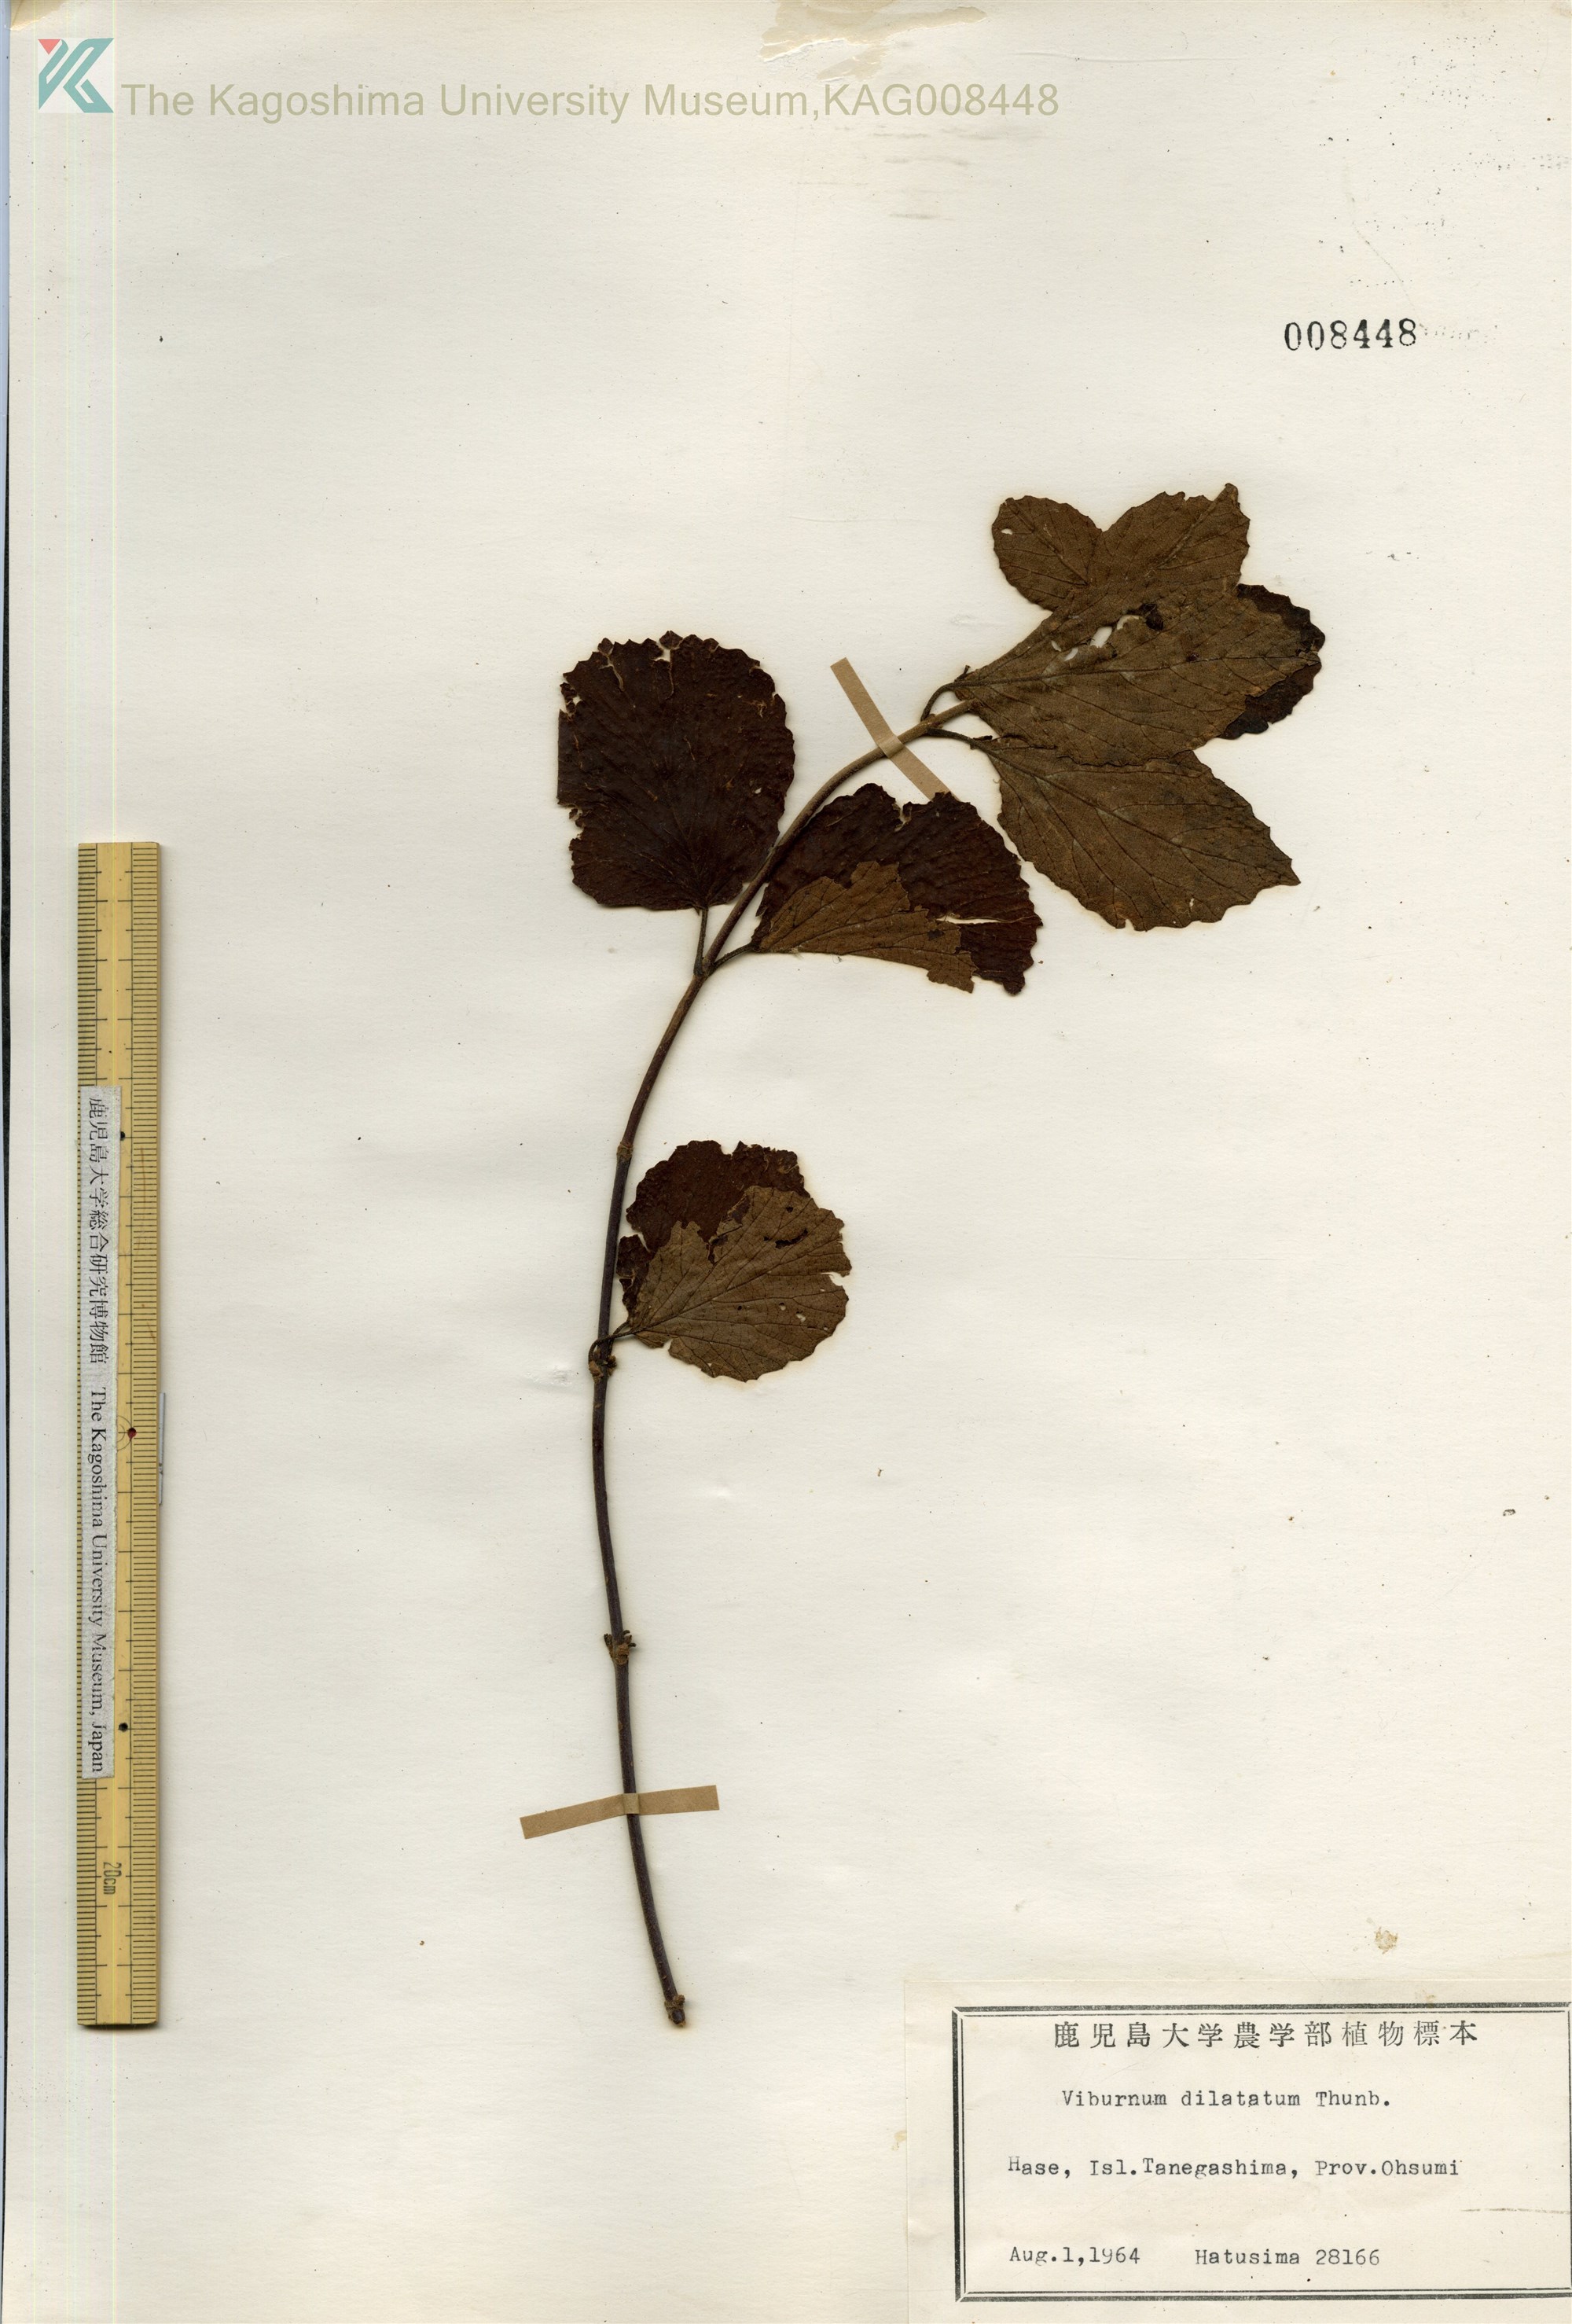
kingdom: Plantae
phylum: Tracheophyta
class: Magnoliopsida
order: Dipsacales
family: Viburnaceae
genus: Viburnum
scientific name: Viburnum dilatatum
